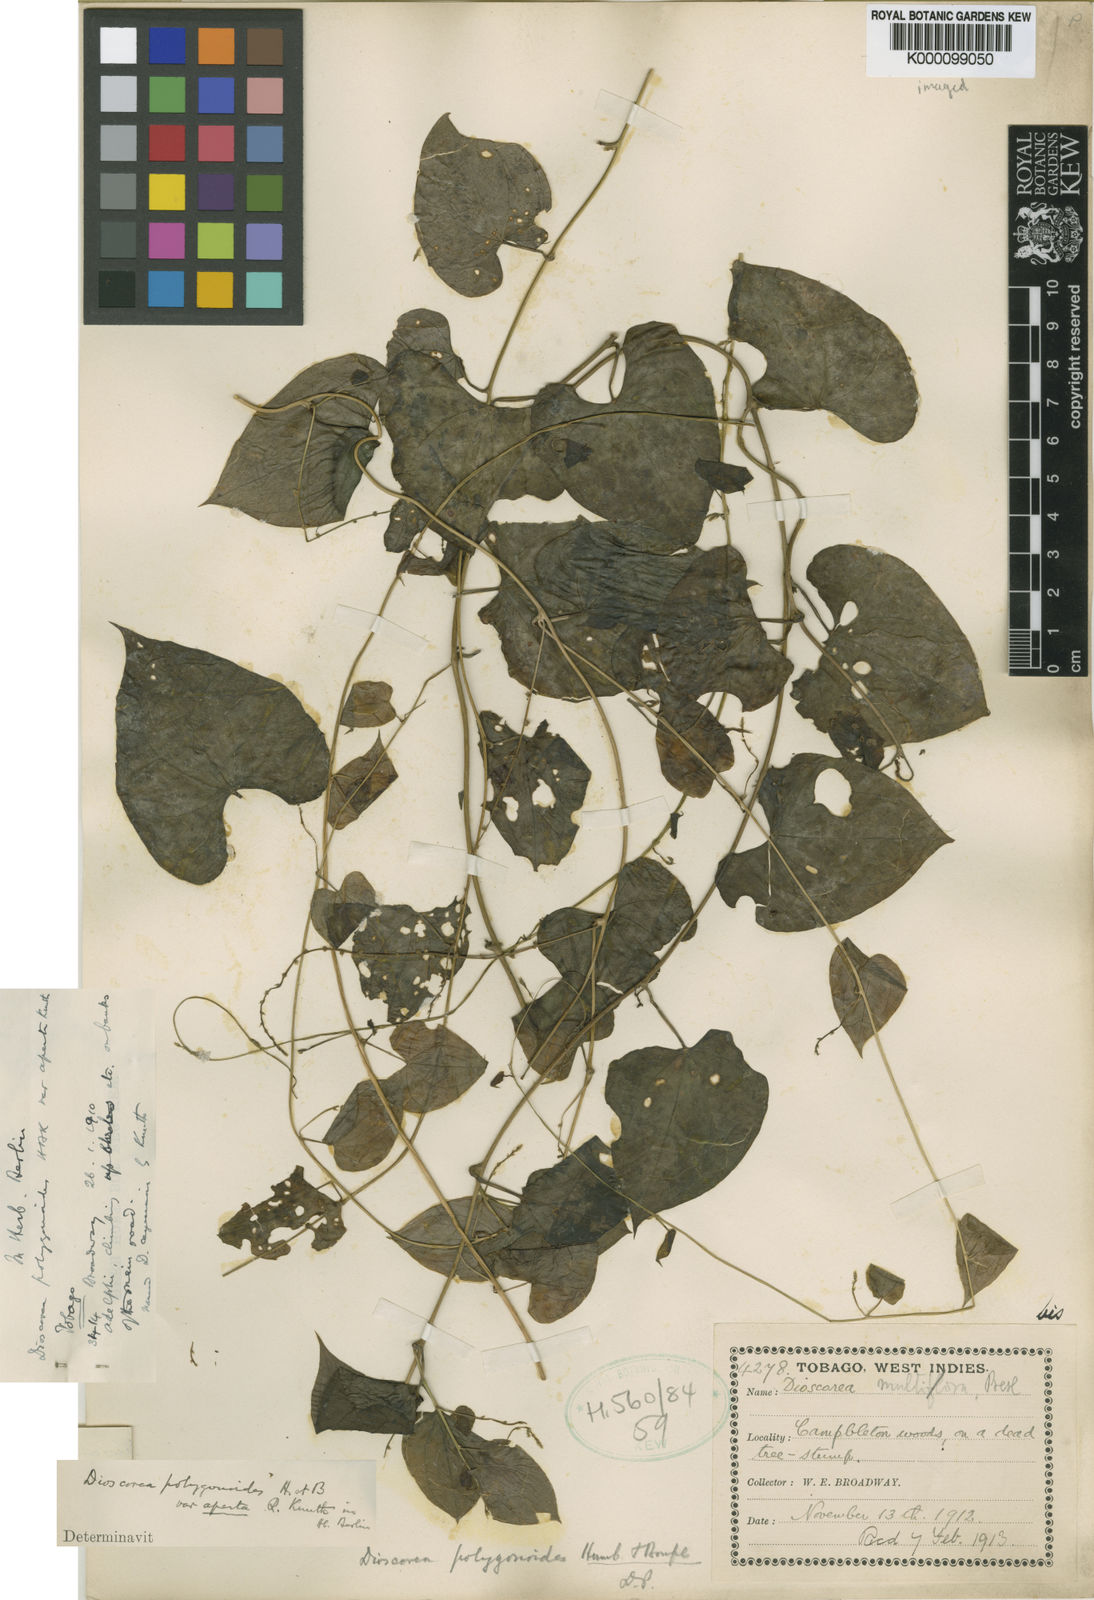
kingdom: Plantae
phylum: Tracheophyta
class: Liliopsida
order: Dioscoreales
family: Dioscoreaceae
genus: Dioscorea
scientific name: Dioscorea polygonoides
